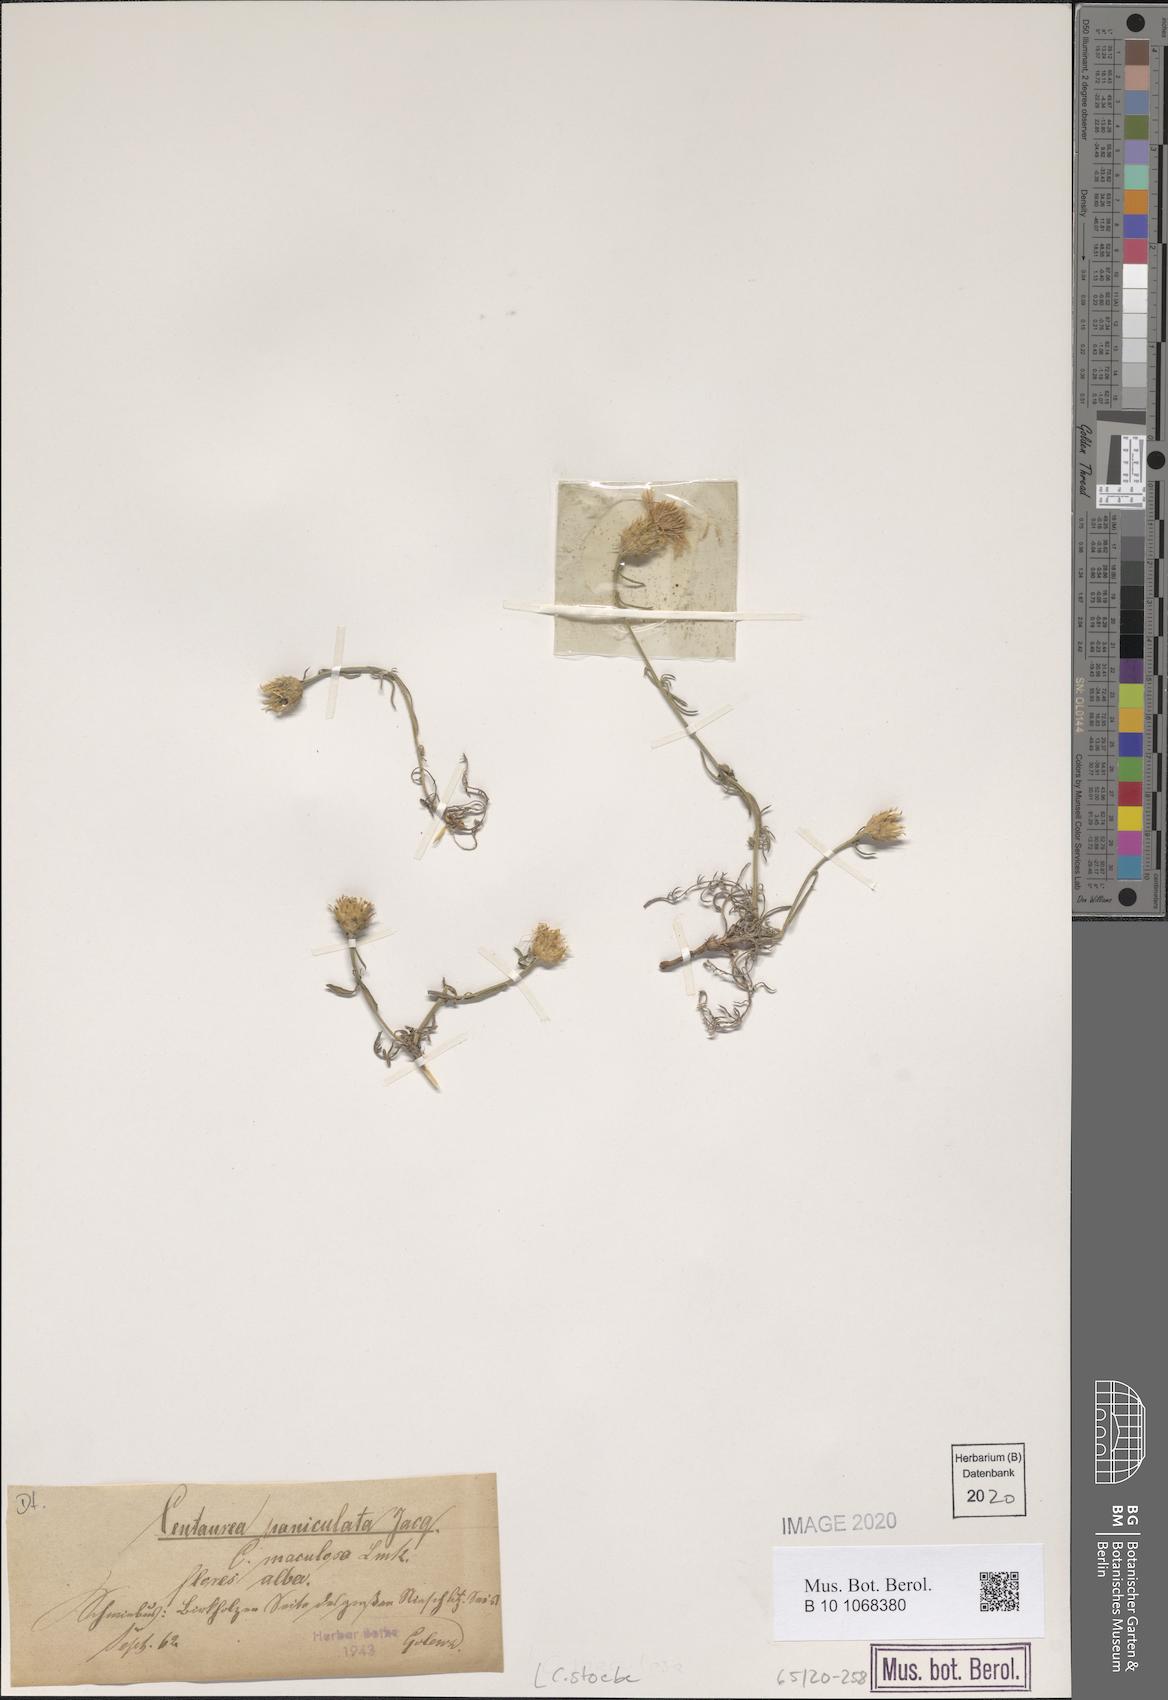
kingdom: Plantae
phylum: Tracheophyta
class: Magnoliopsida
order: Asterales
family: Asteraceae
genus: Centaurea
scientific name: Centaurea stoebe
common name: Spotted knapweed
